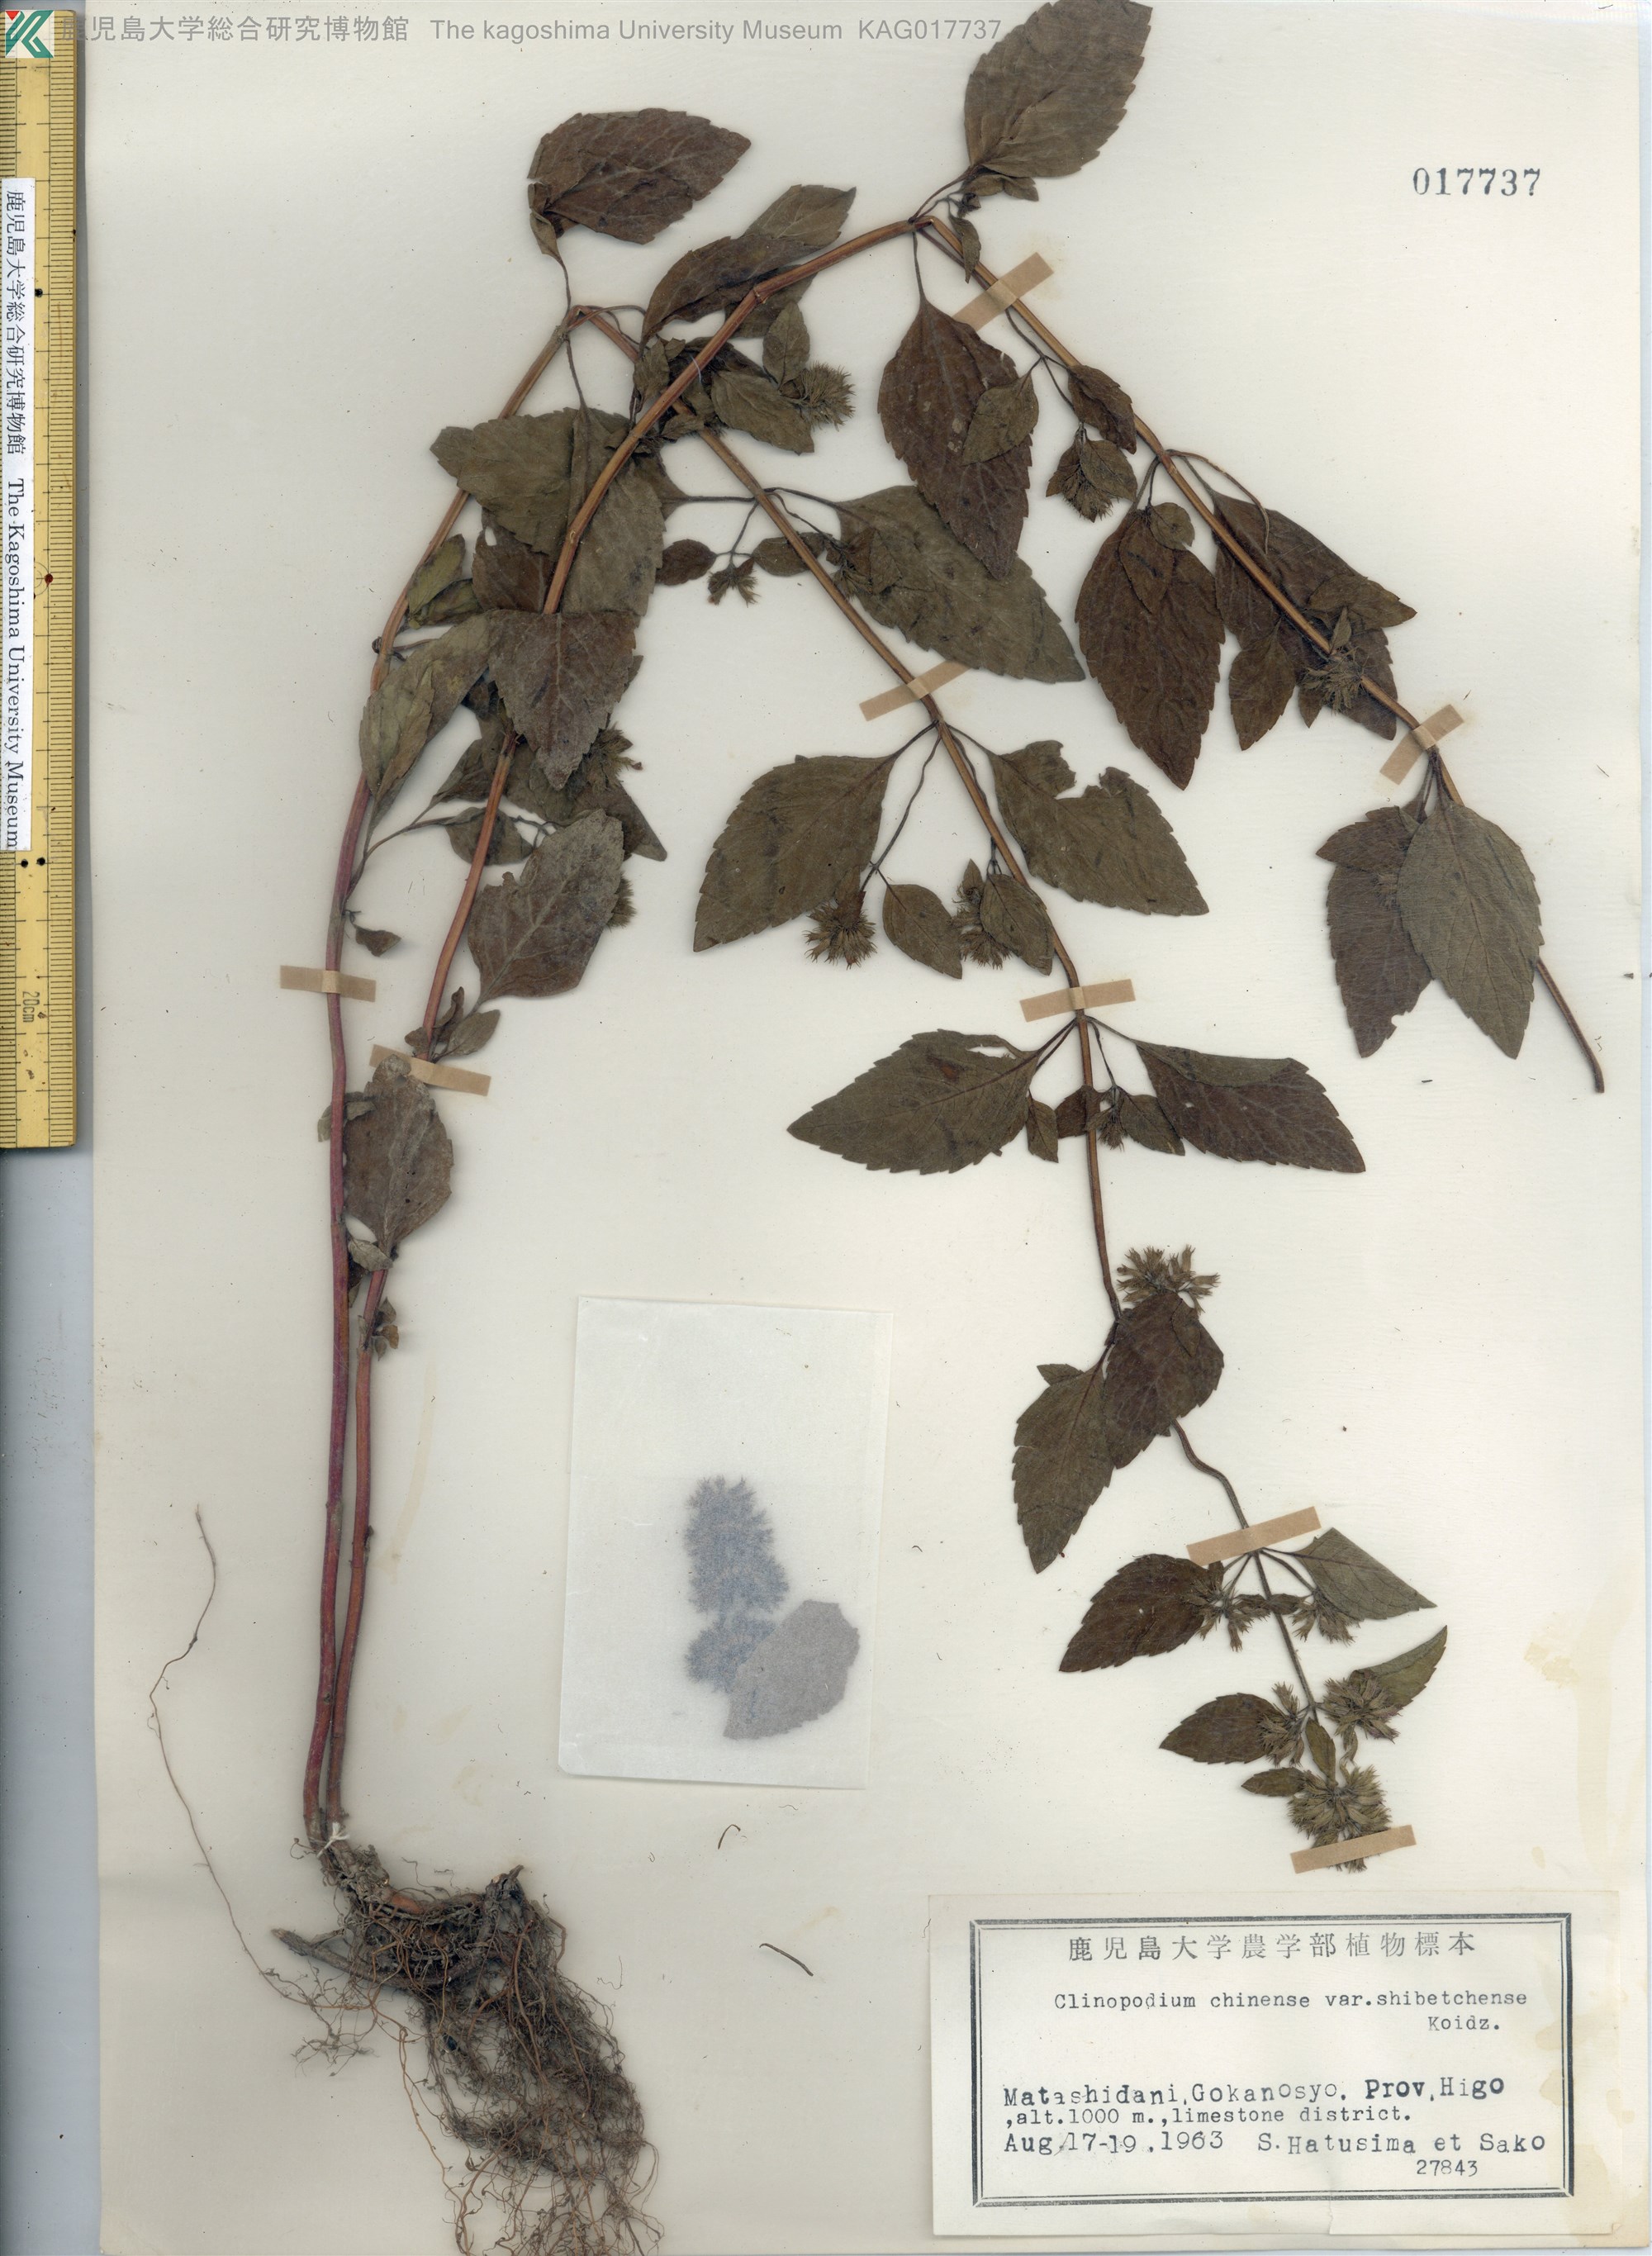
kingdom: Plantae
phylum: Tracheophyta
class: Magnoliopsida
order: Lamiales
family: Lamiaceae
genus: Clinopodium
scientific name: Clinopodium multicaule
